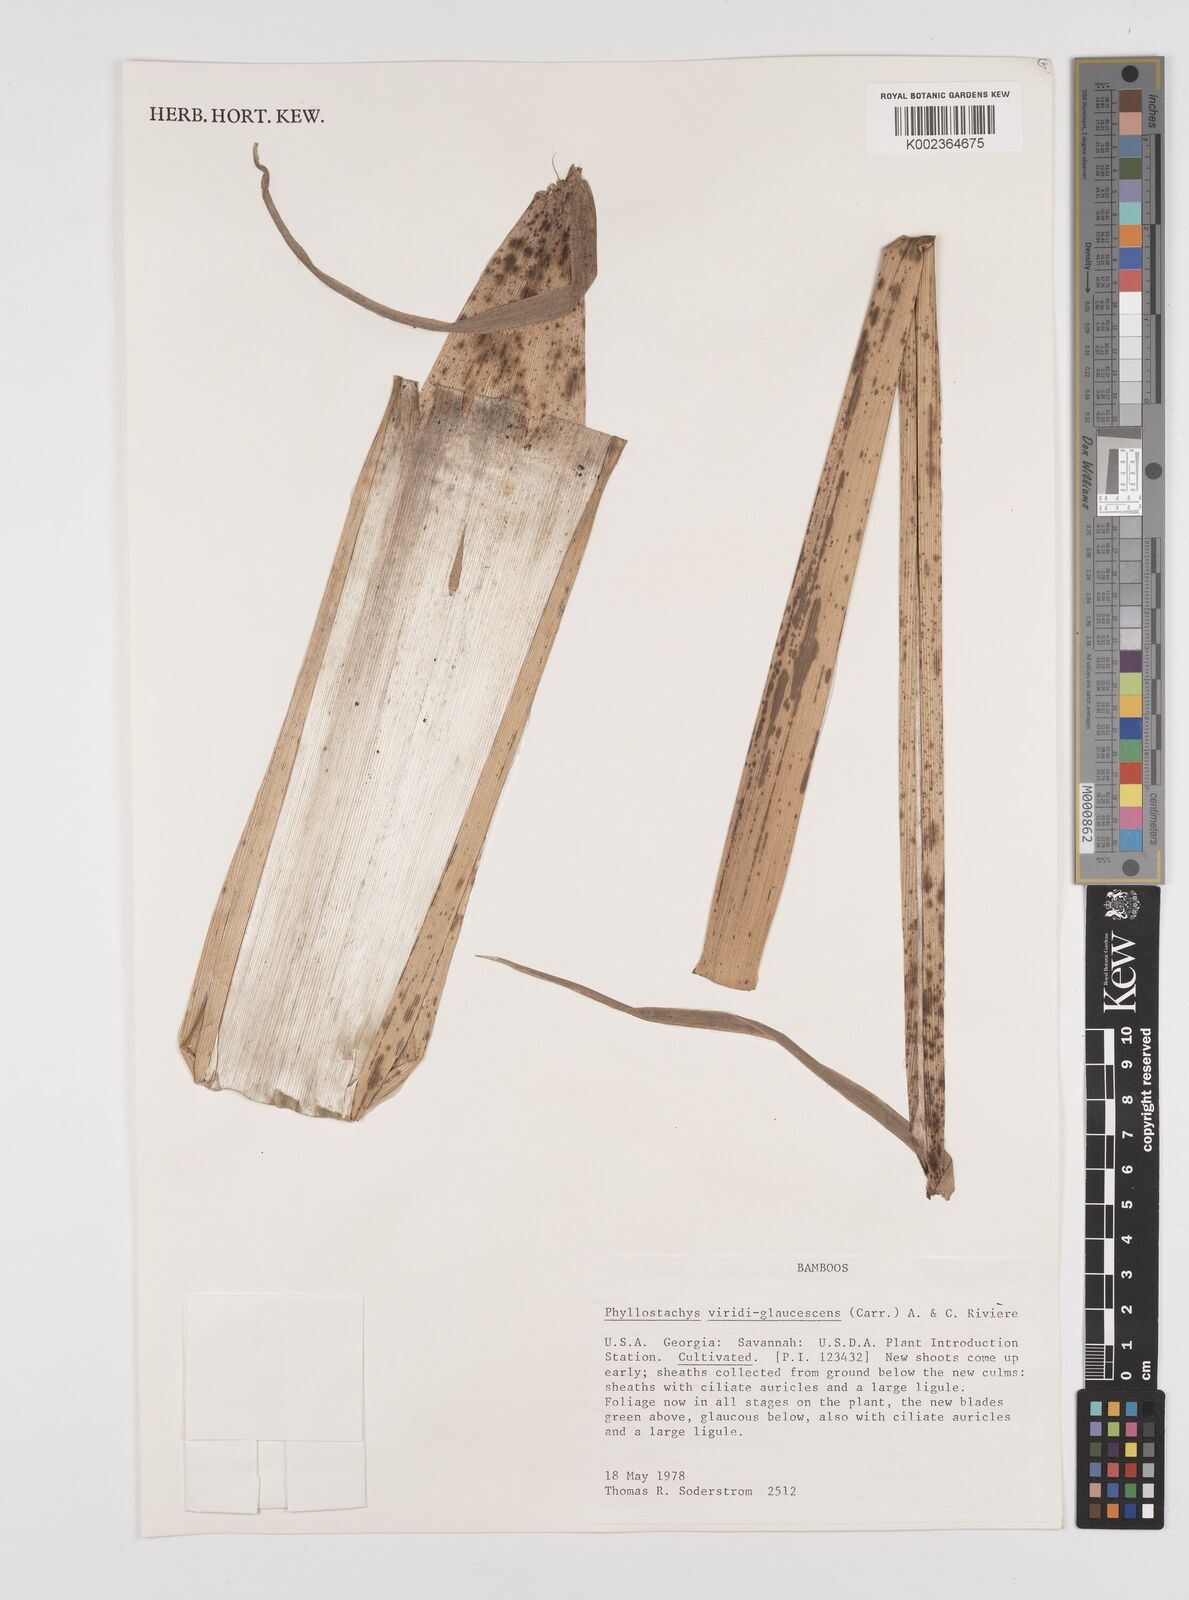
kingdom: Plantae
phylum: Tracheophyta
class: Liliopsida
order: Poales
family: Poaceae
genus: Phyllostachys
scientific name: Phyllostachys viridiglaucescens
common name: Greenwax golden bamboo
